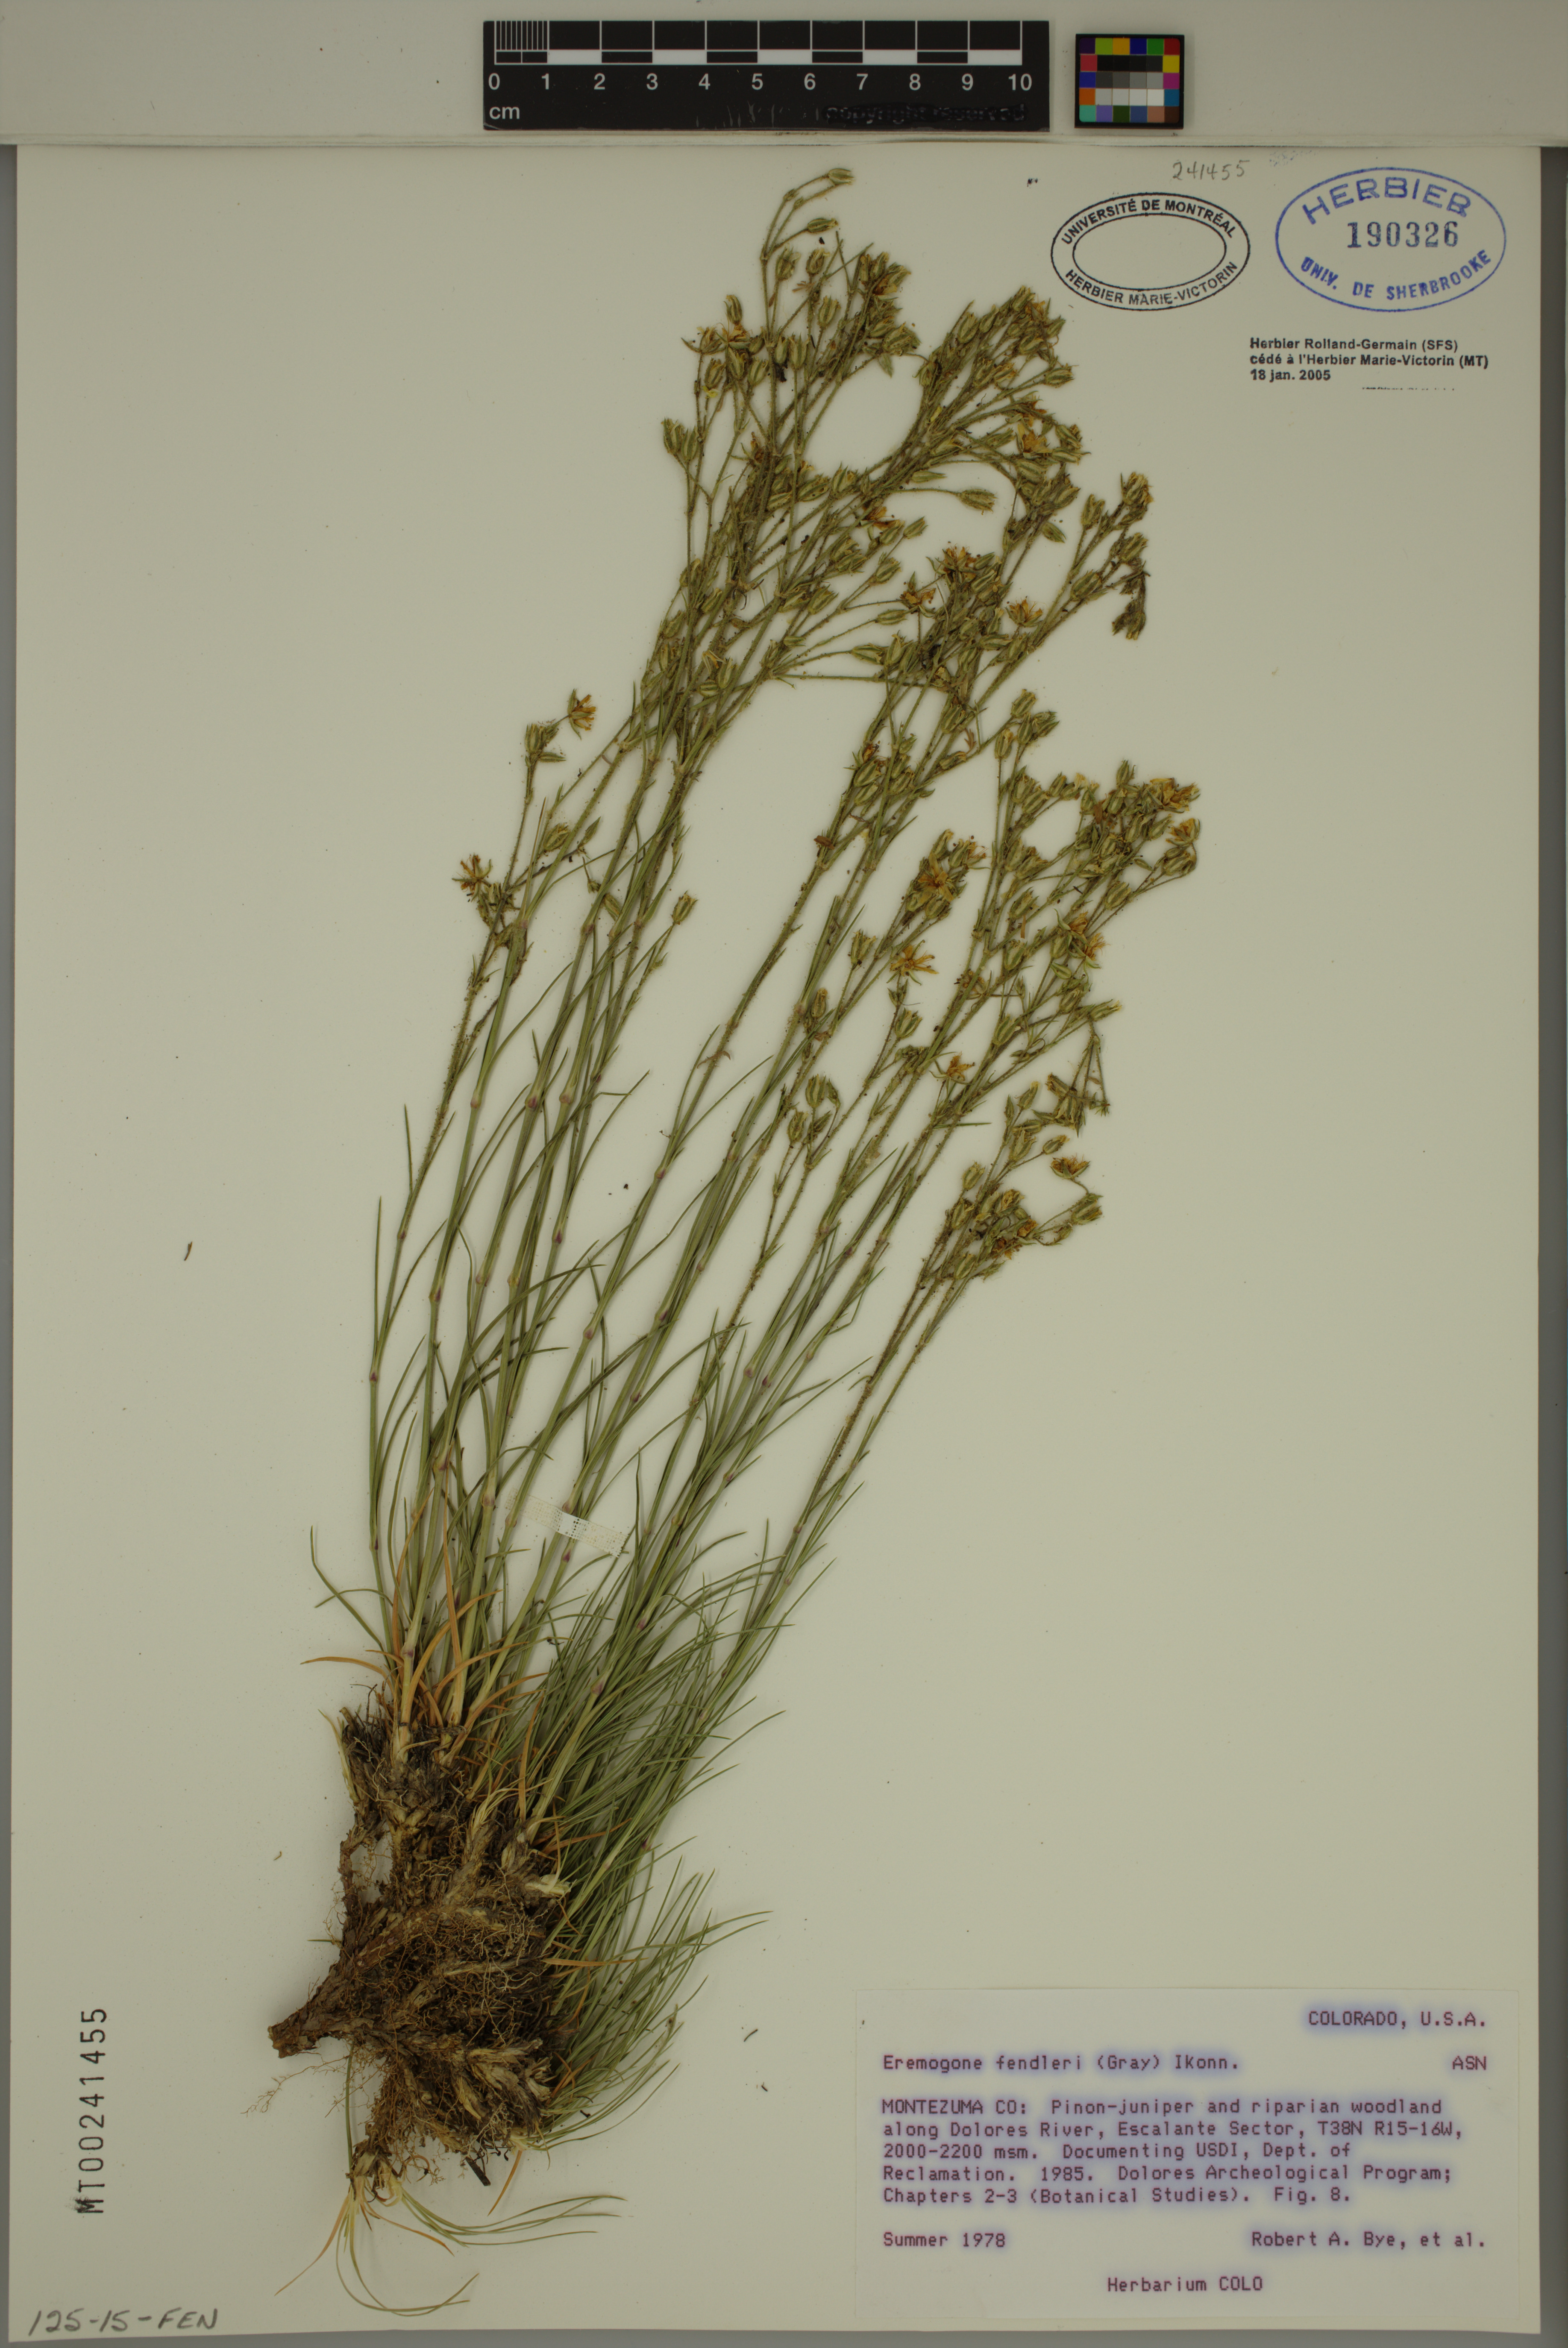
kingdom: Plantae
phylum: Tracheophyta
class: Magnoliopsida
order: Caryophyllales
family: Caryophyllaceae
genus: Eremogone
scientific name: Eremogone fendleri
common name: Fendler's sandwort
